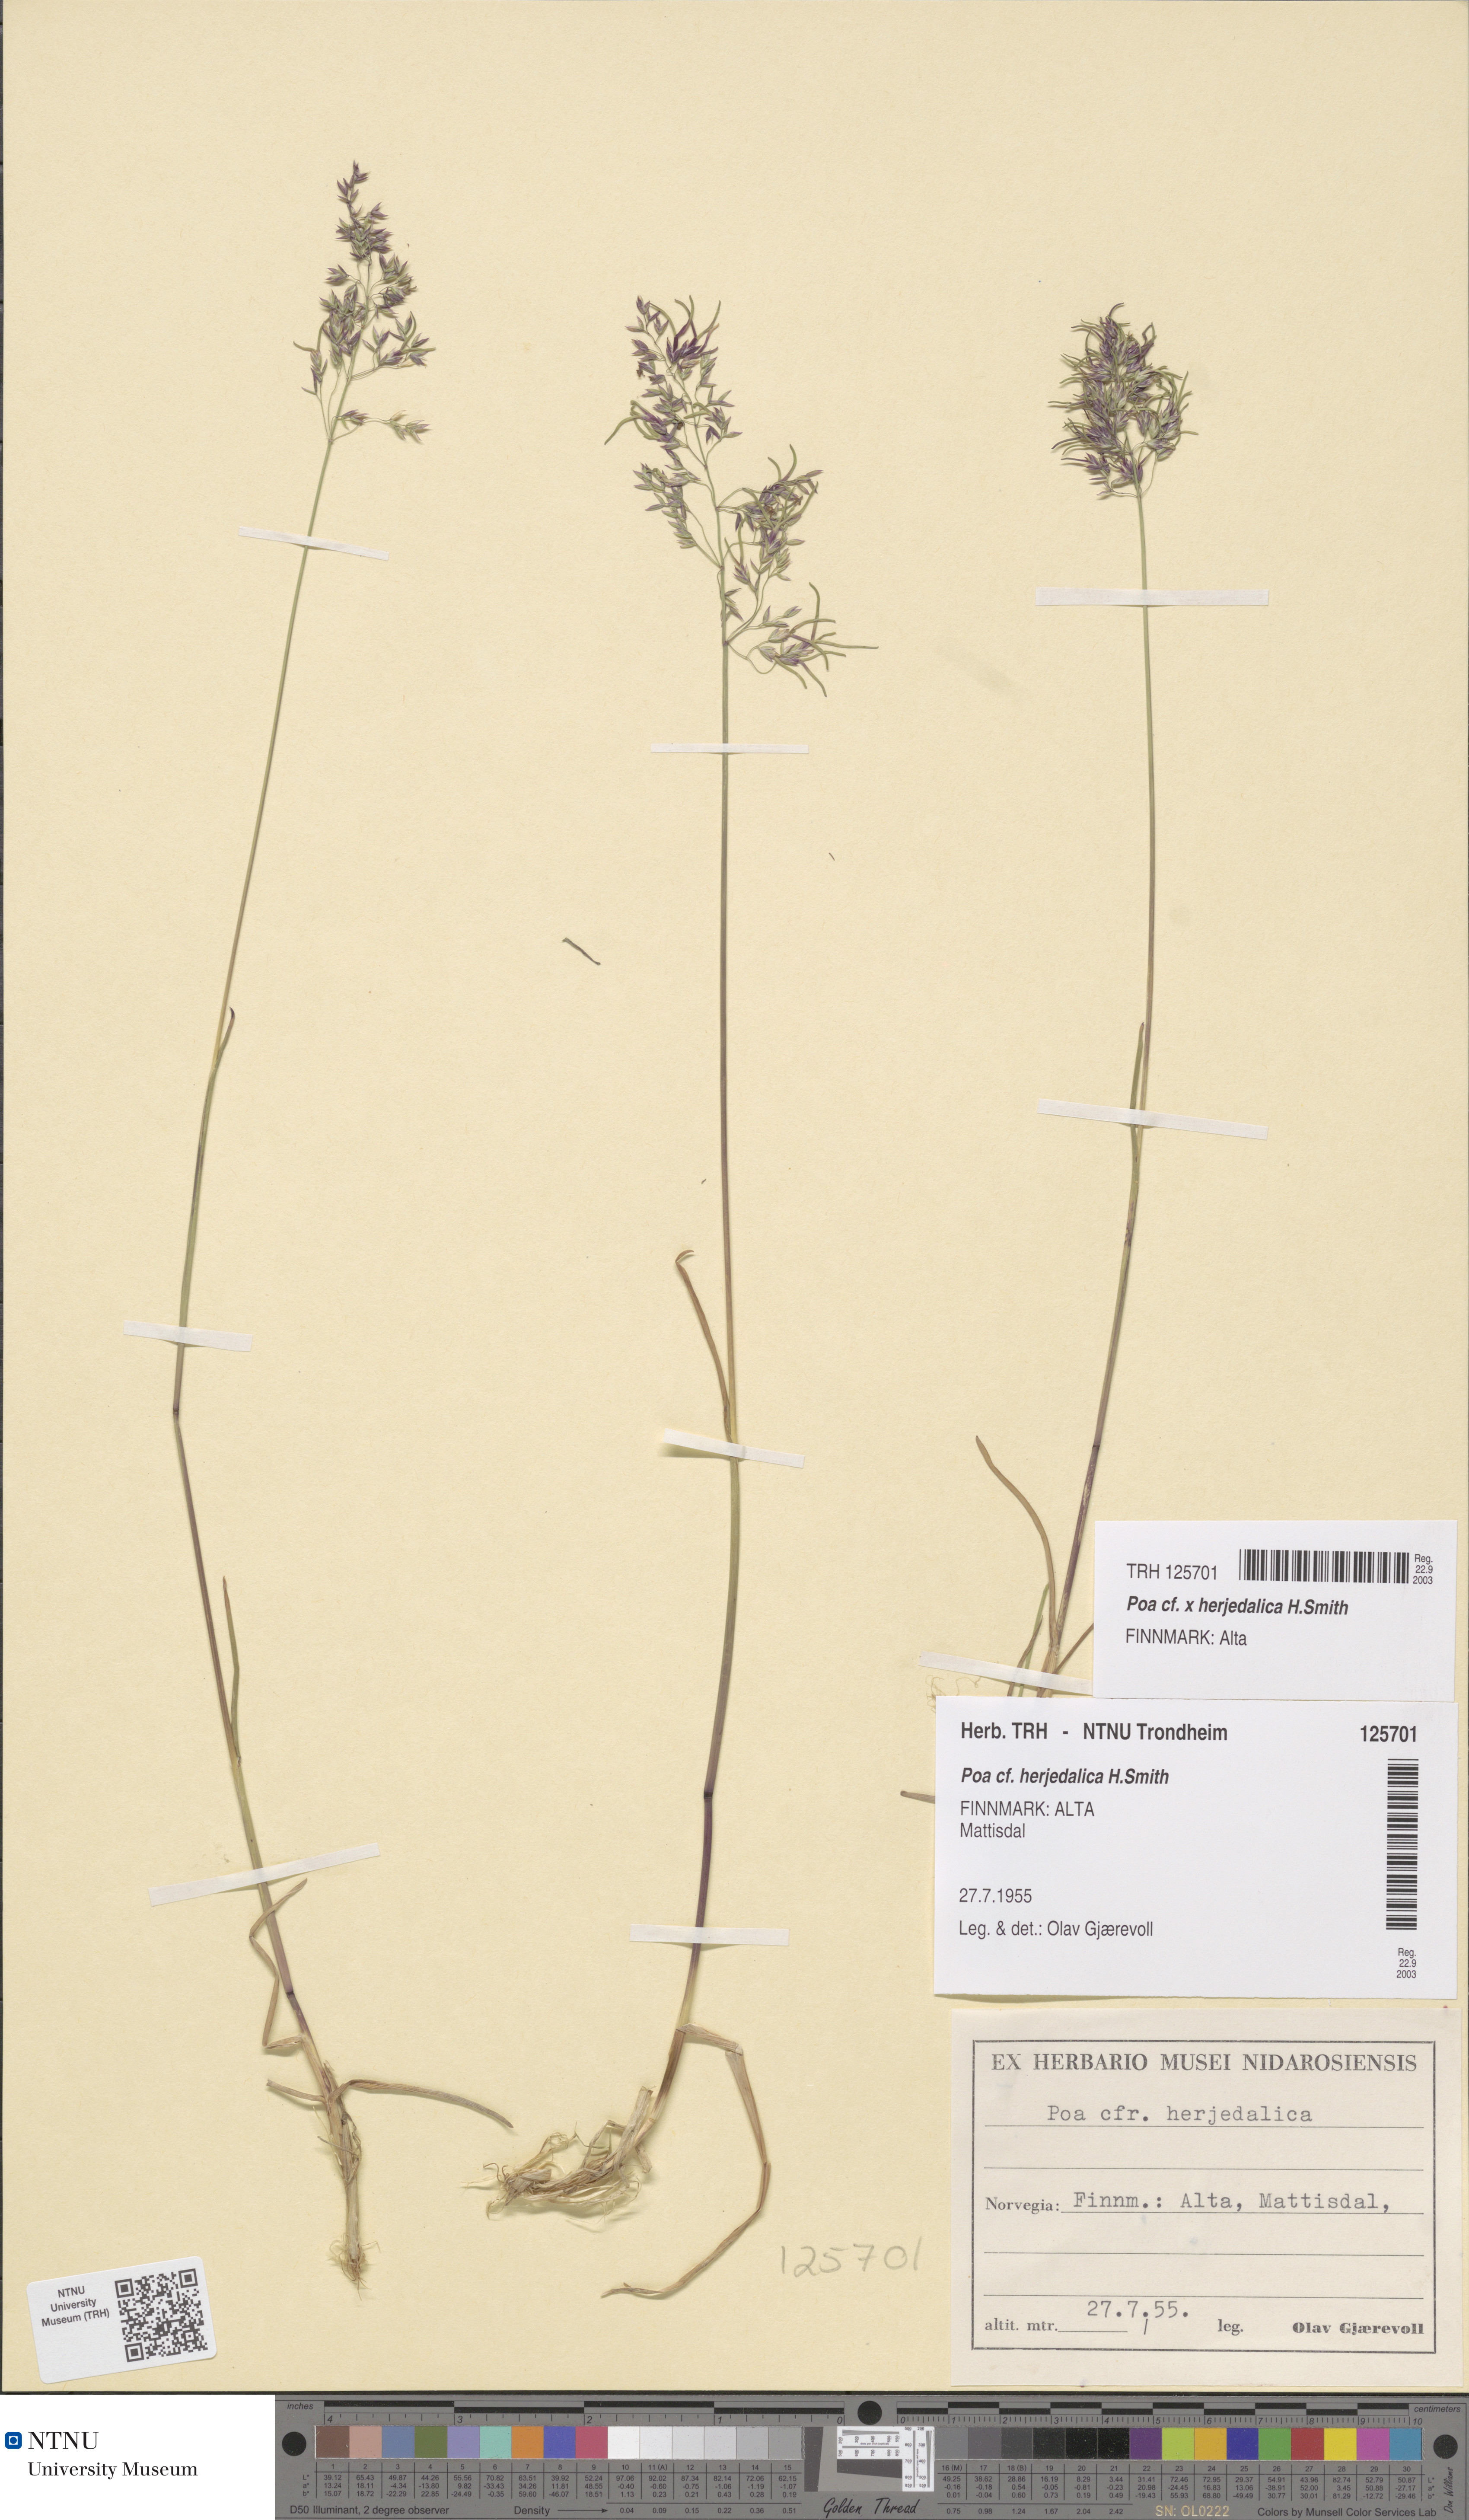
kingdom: Plantae
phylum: Tracheophyta
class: Liliopsida
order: Poales
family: Poaceae
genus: Poa
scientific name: Poa herjedalica
